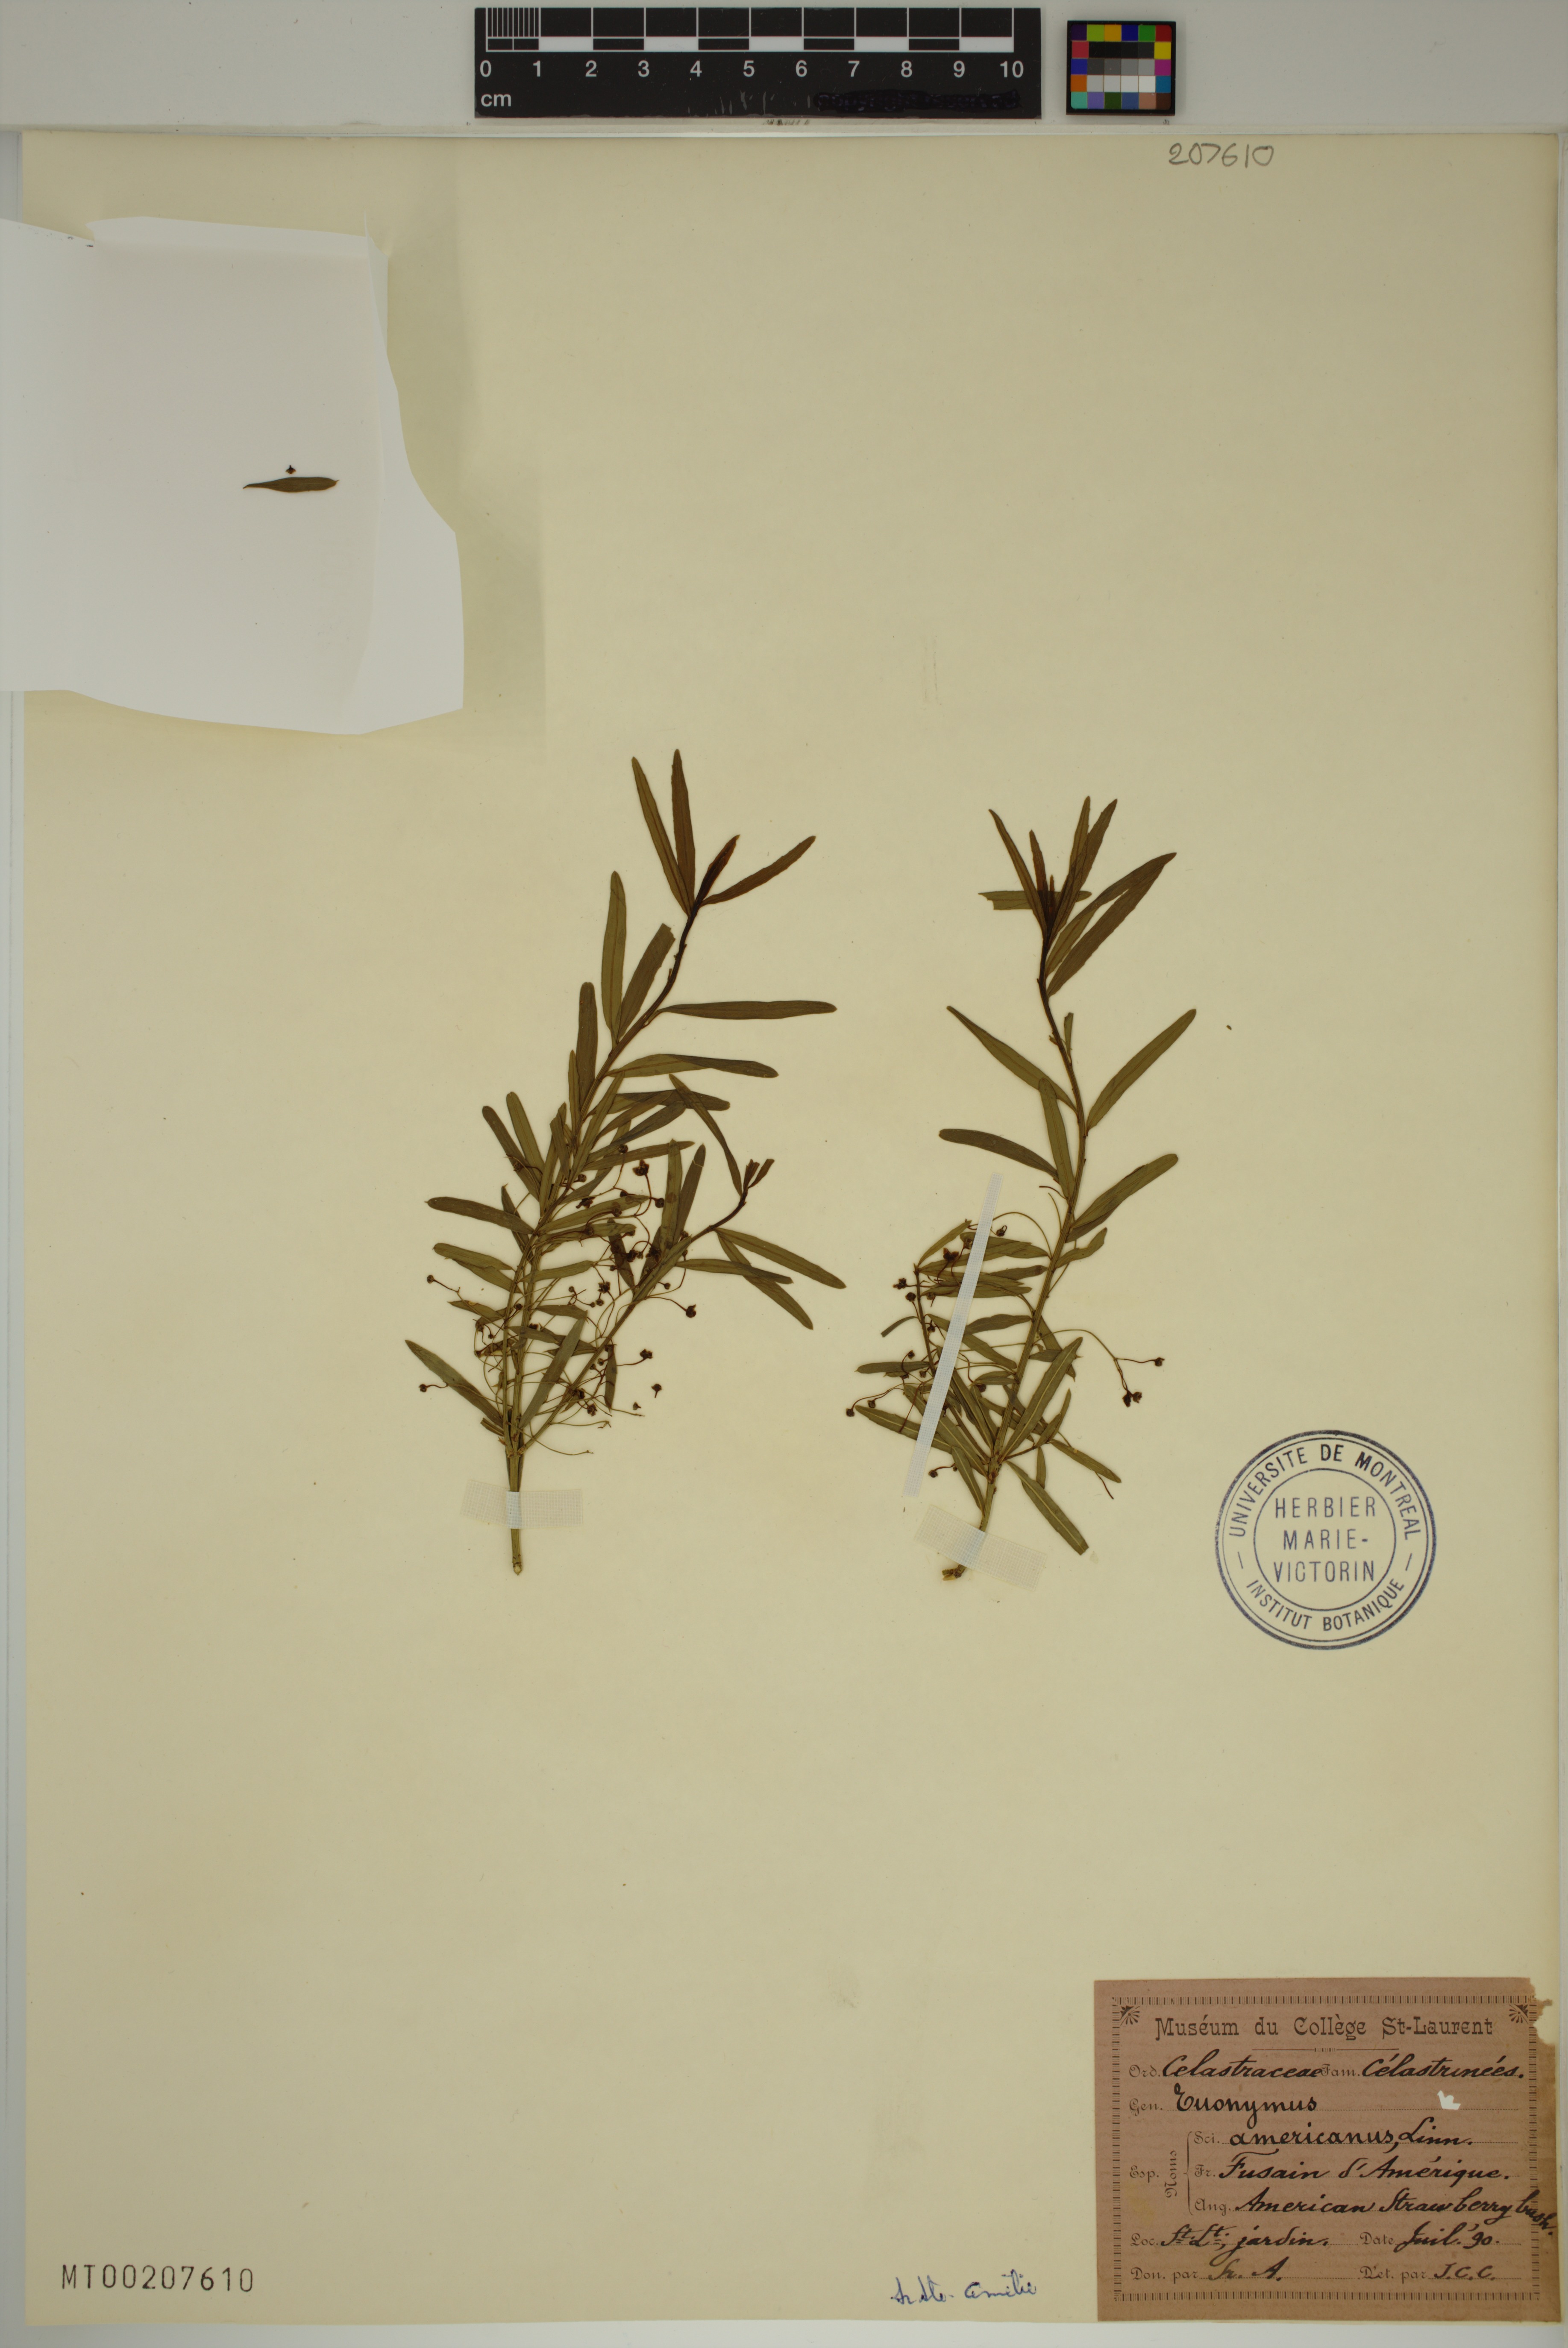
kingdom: Plantae
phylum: Tracheophyta
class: Magnoliopsida
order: Celastrales
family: Celastraceae
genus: Euonymus
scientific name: Euonymus americanus
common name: Bursting-heart
